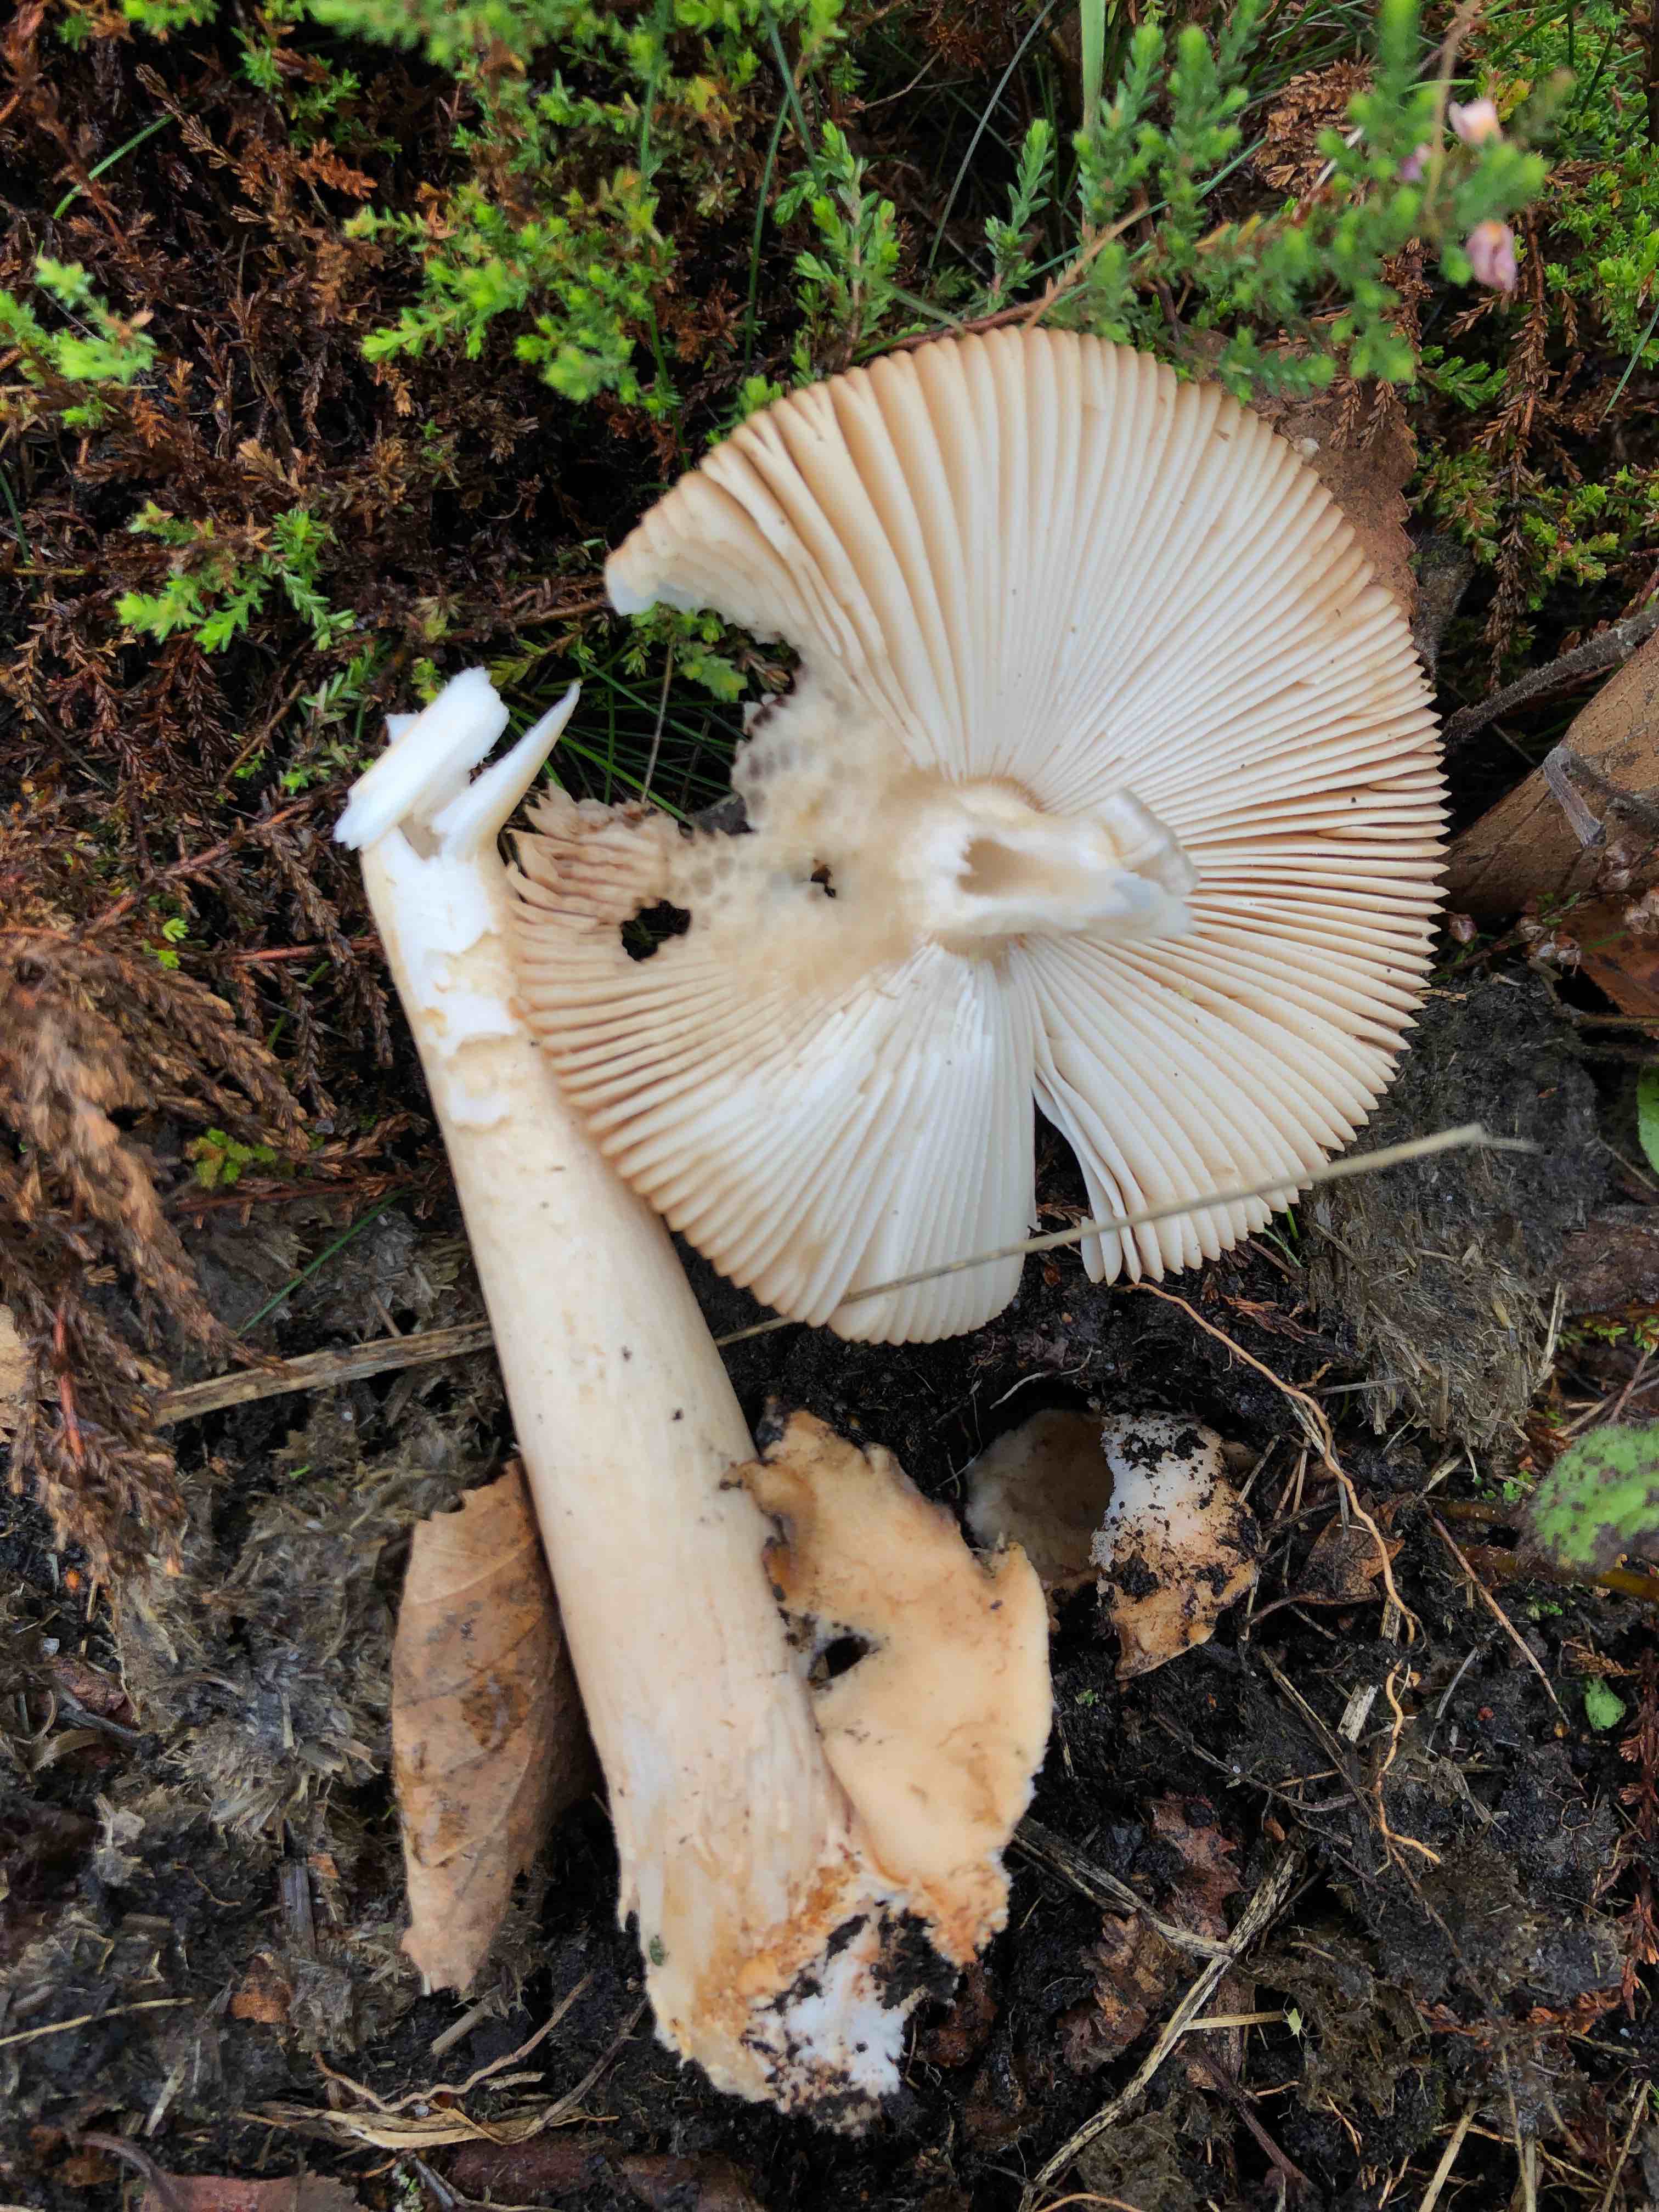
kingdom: Fungi
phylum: Basidiomycota
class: Agaricomycetes
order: Agaricales
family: Amanitaceae
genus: Amanita
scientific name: Amanita fulva
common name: brun kam-fluesvamp
